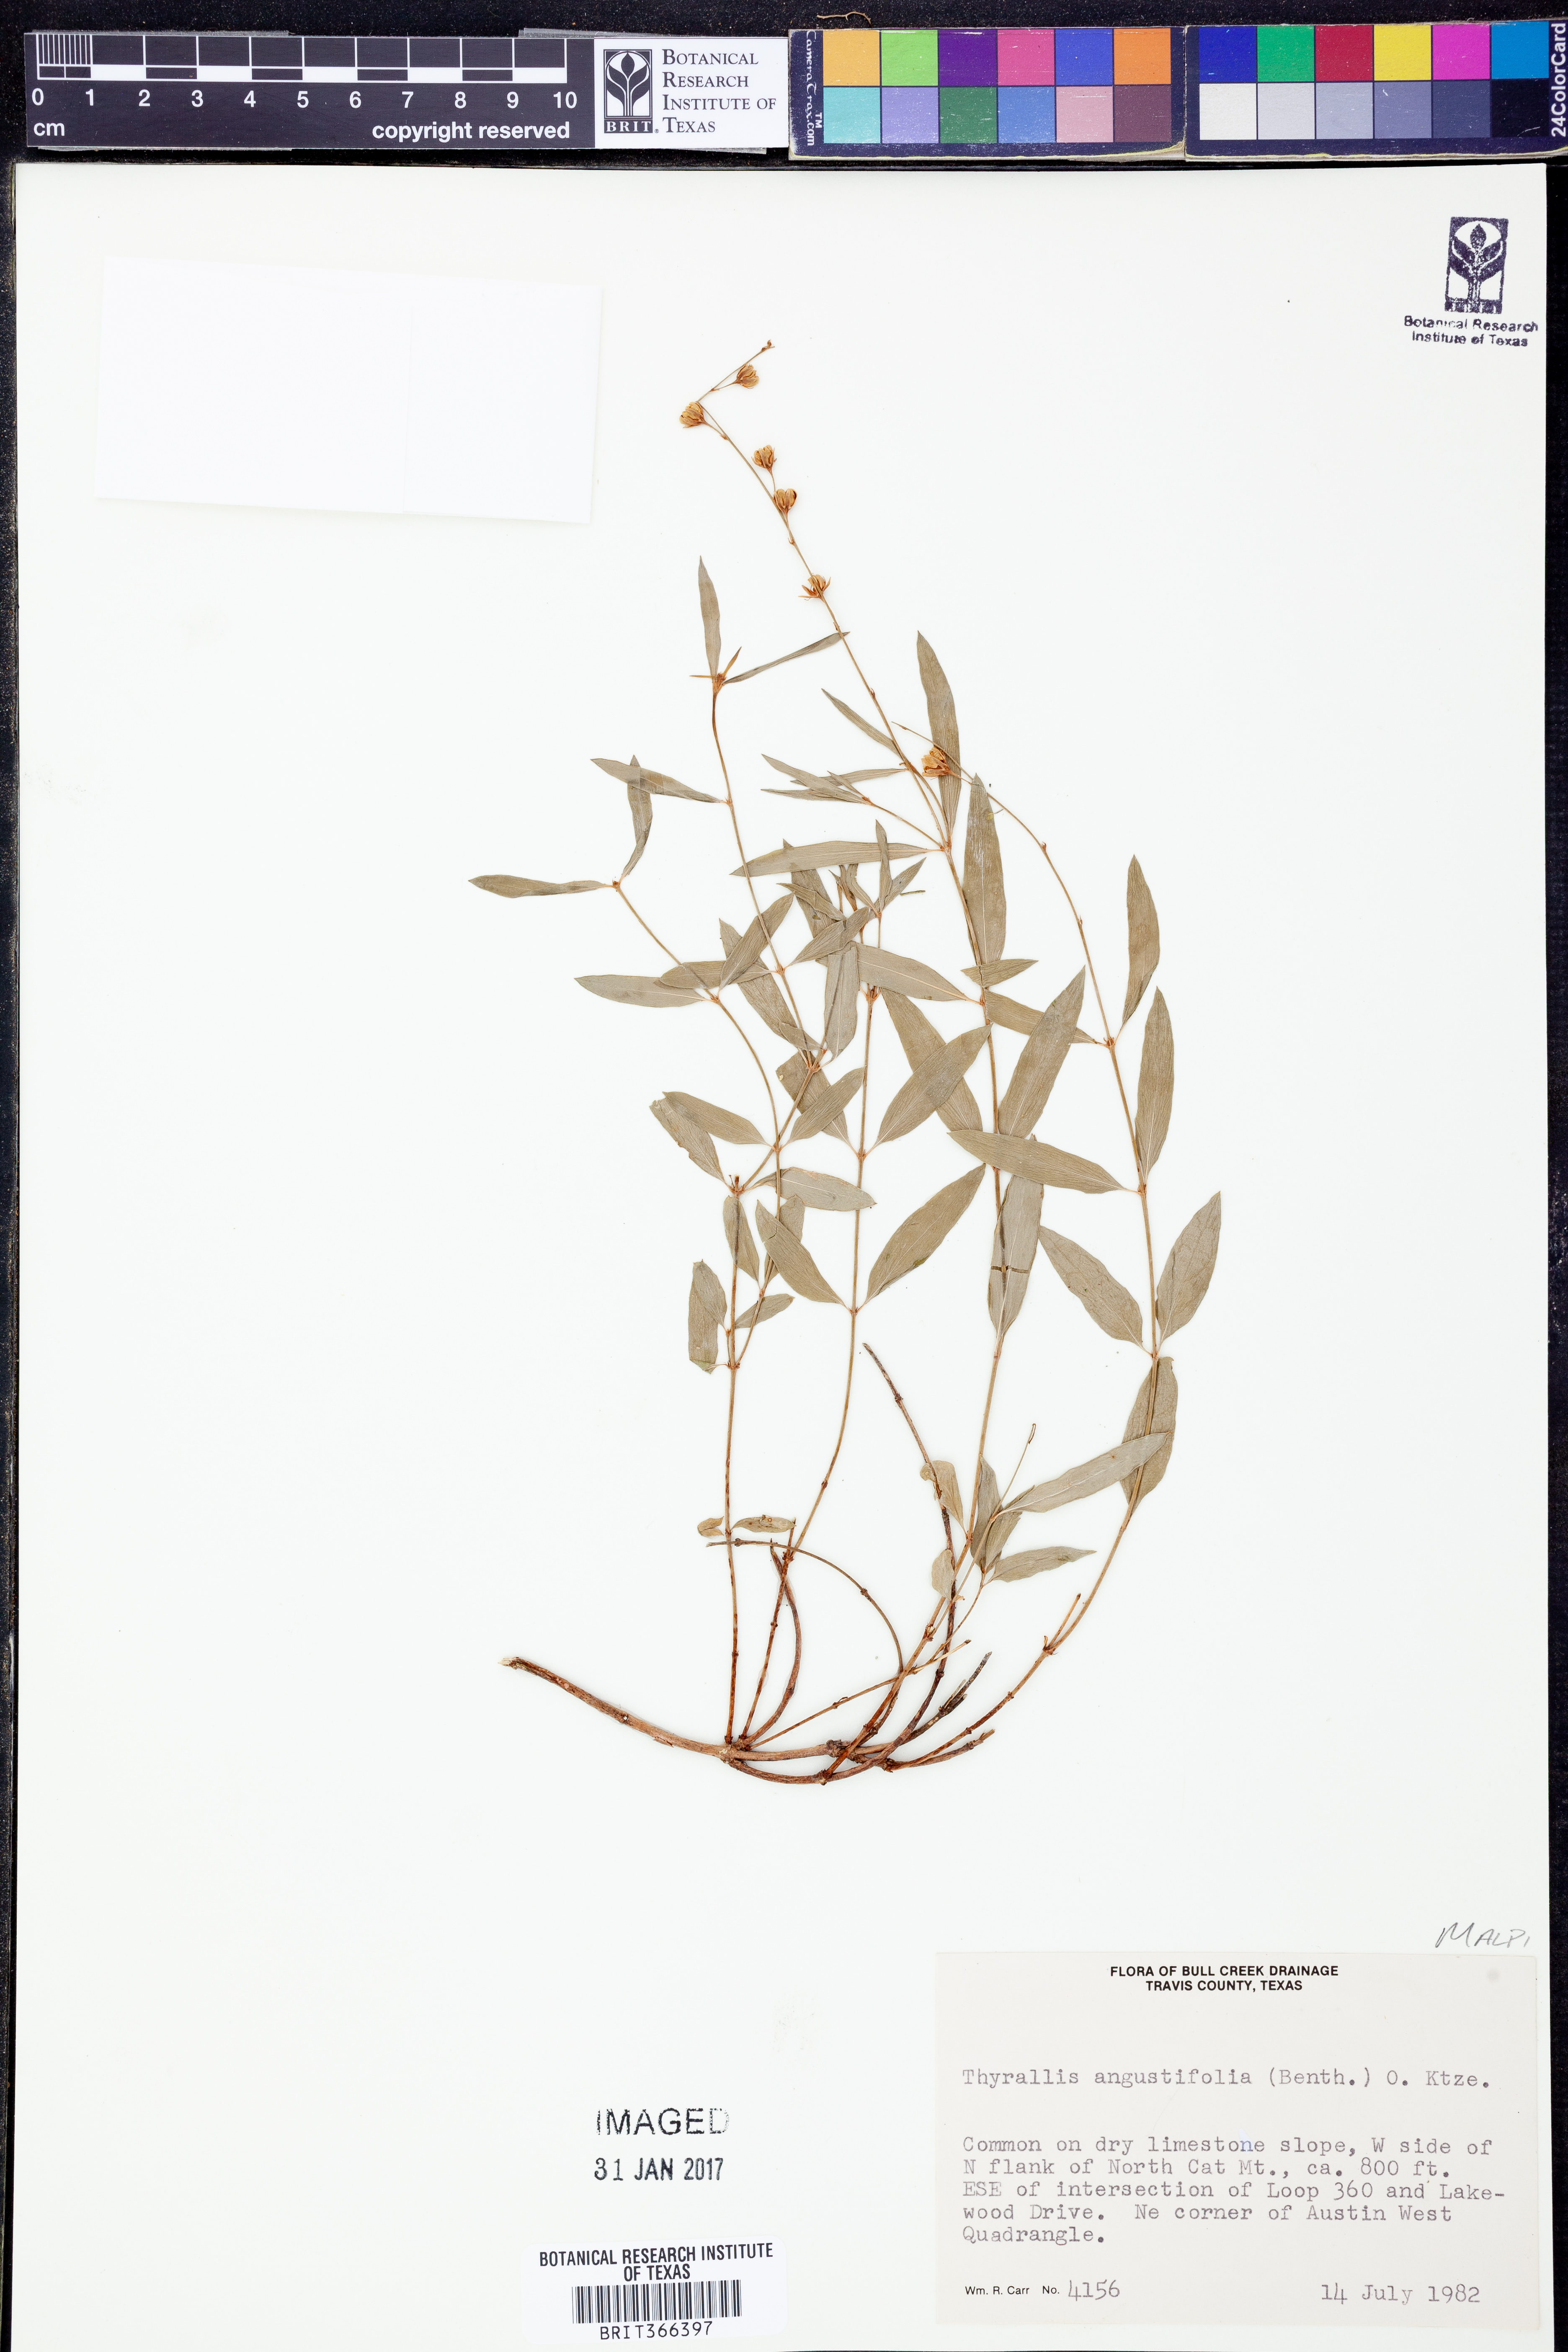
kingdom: Plantae
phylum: Tracheophyta
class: Magnoliopsida
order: Malpighiales
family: Malpighiaceae
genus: Galphimia
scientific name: Galphimia angustifolia
